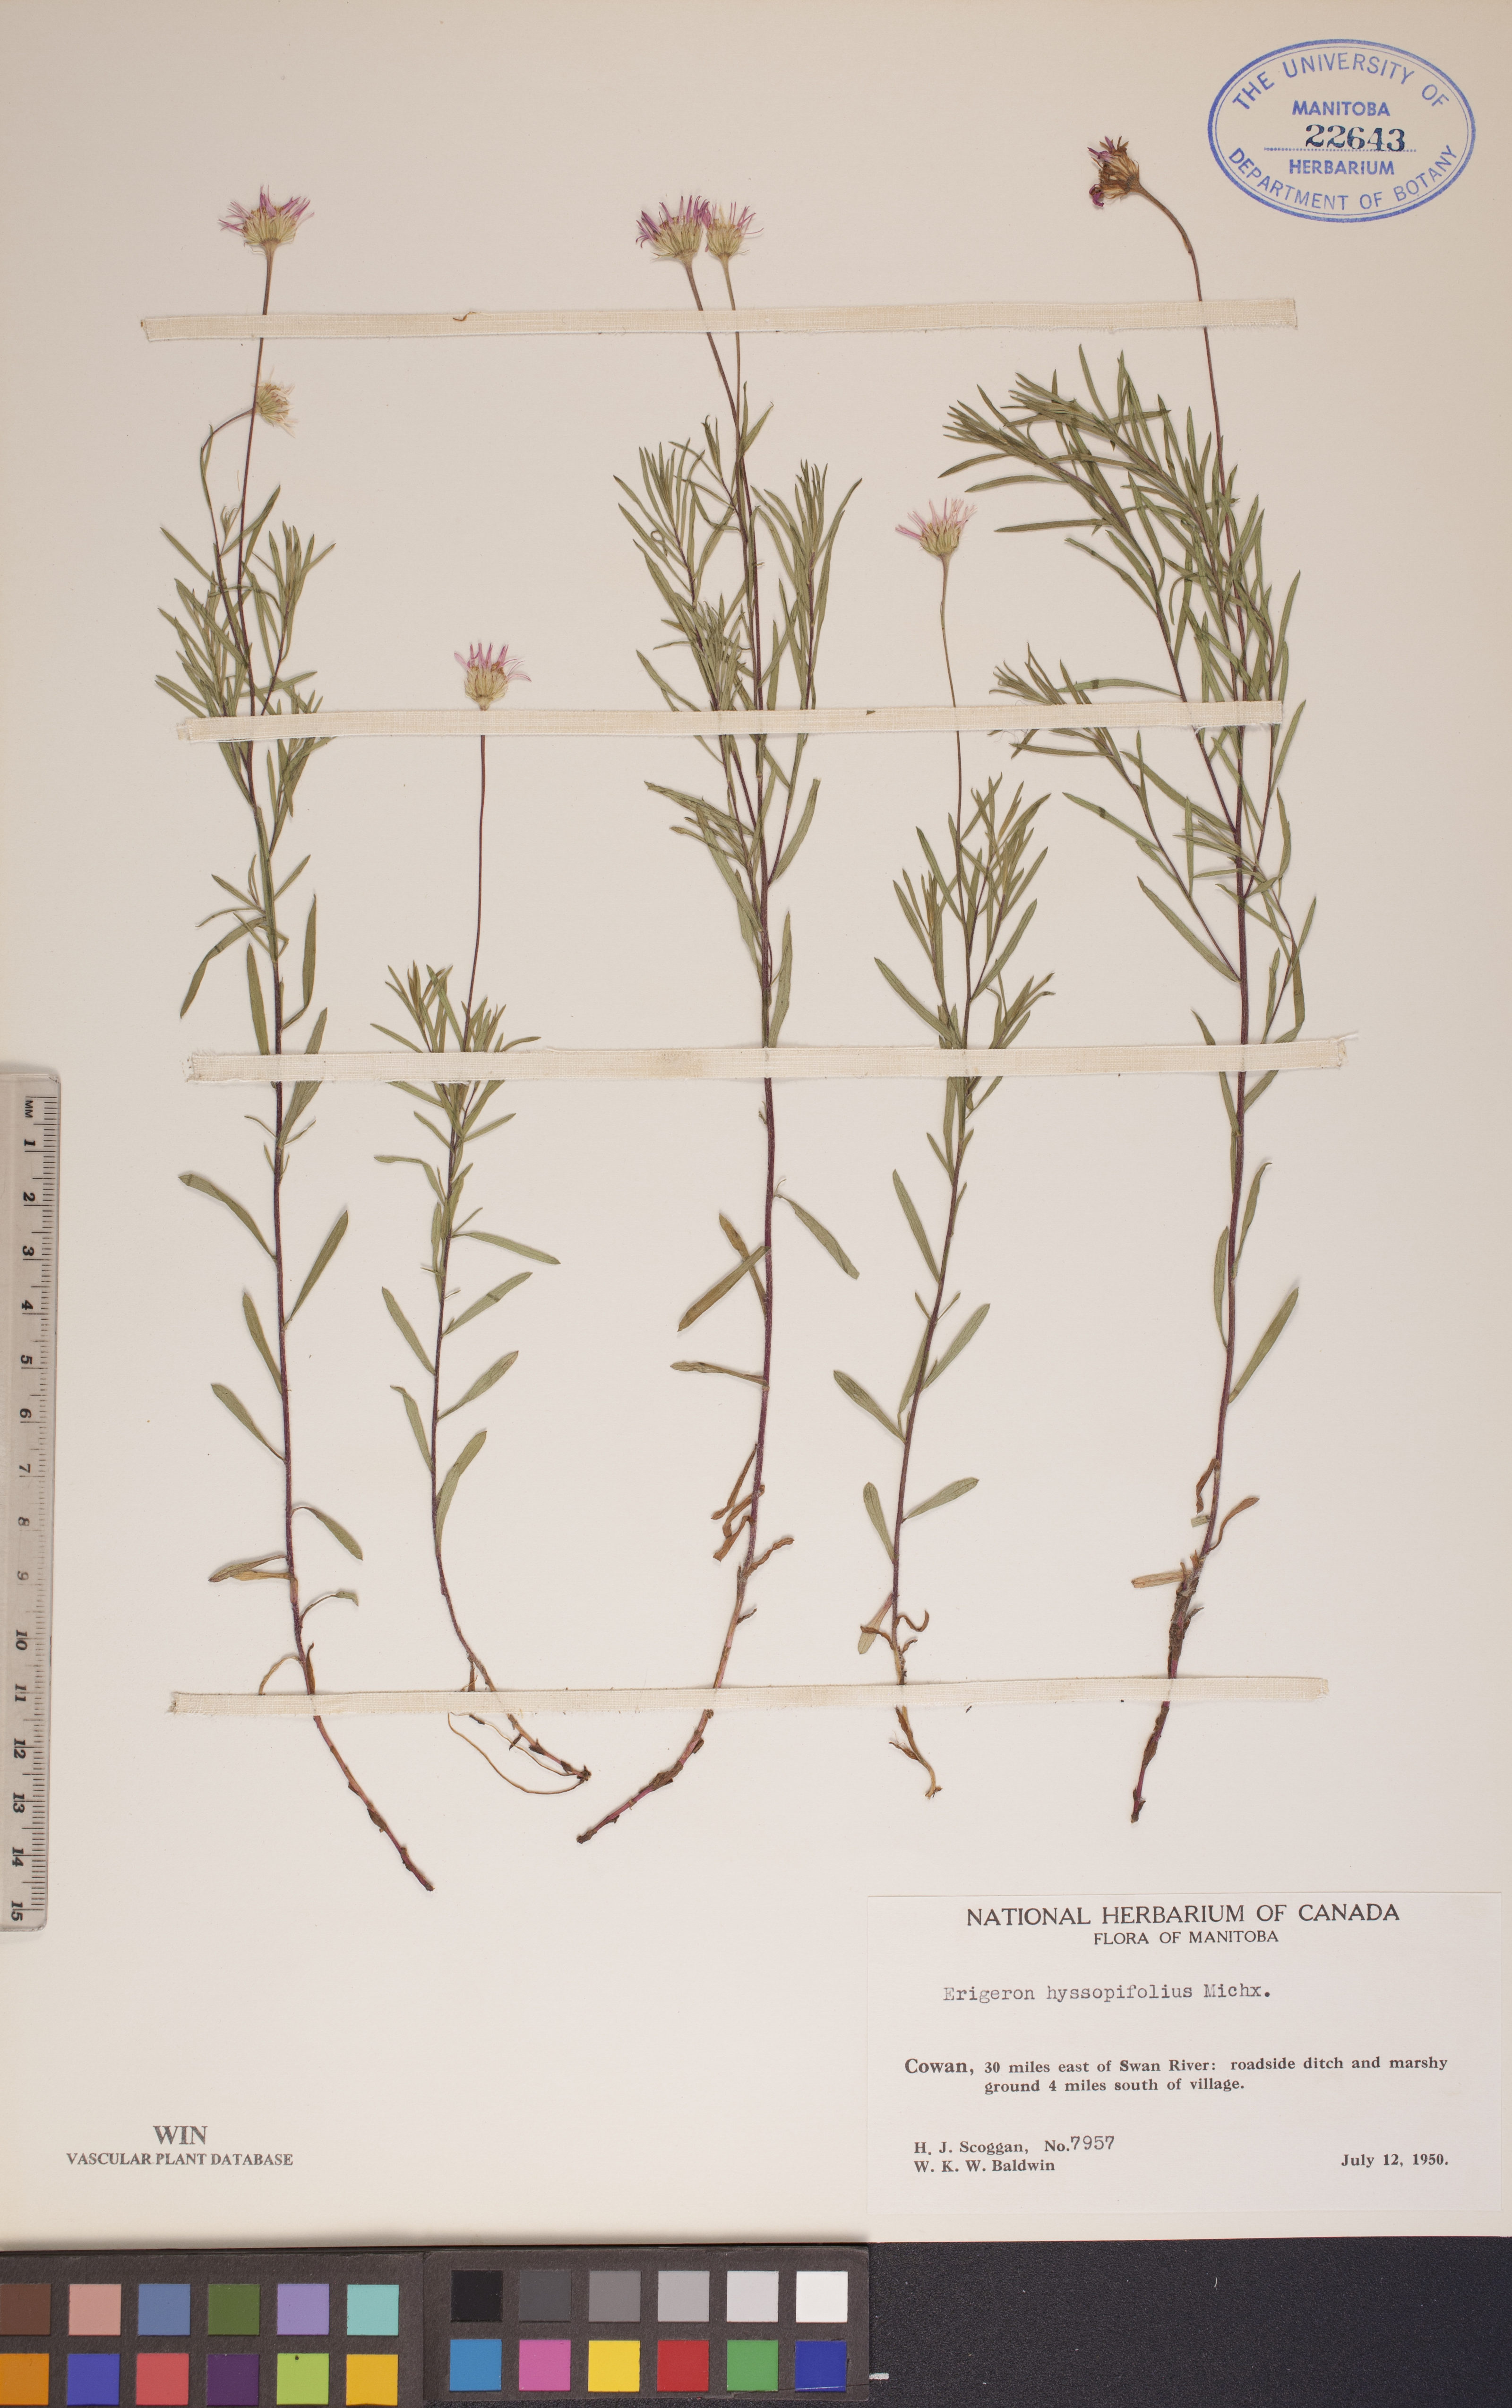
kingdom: Plantae
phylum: Tracheophyta
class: Magnoliopsida
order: Asterales
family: Asteraceae
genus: Erigeron
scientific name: Erigeron hyssopifolius
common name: Daisy fleabane
